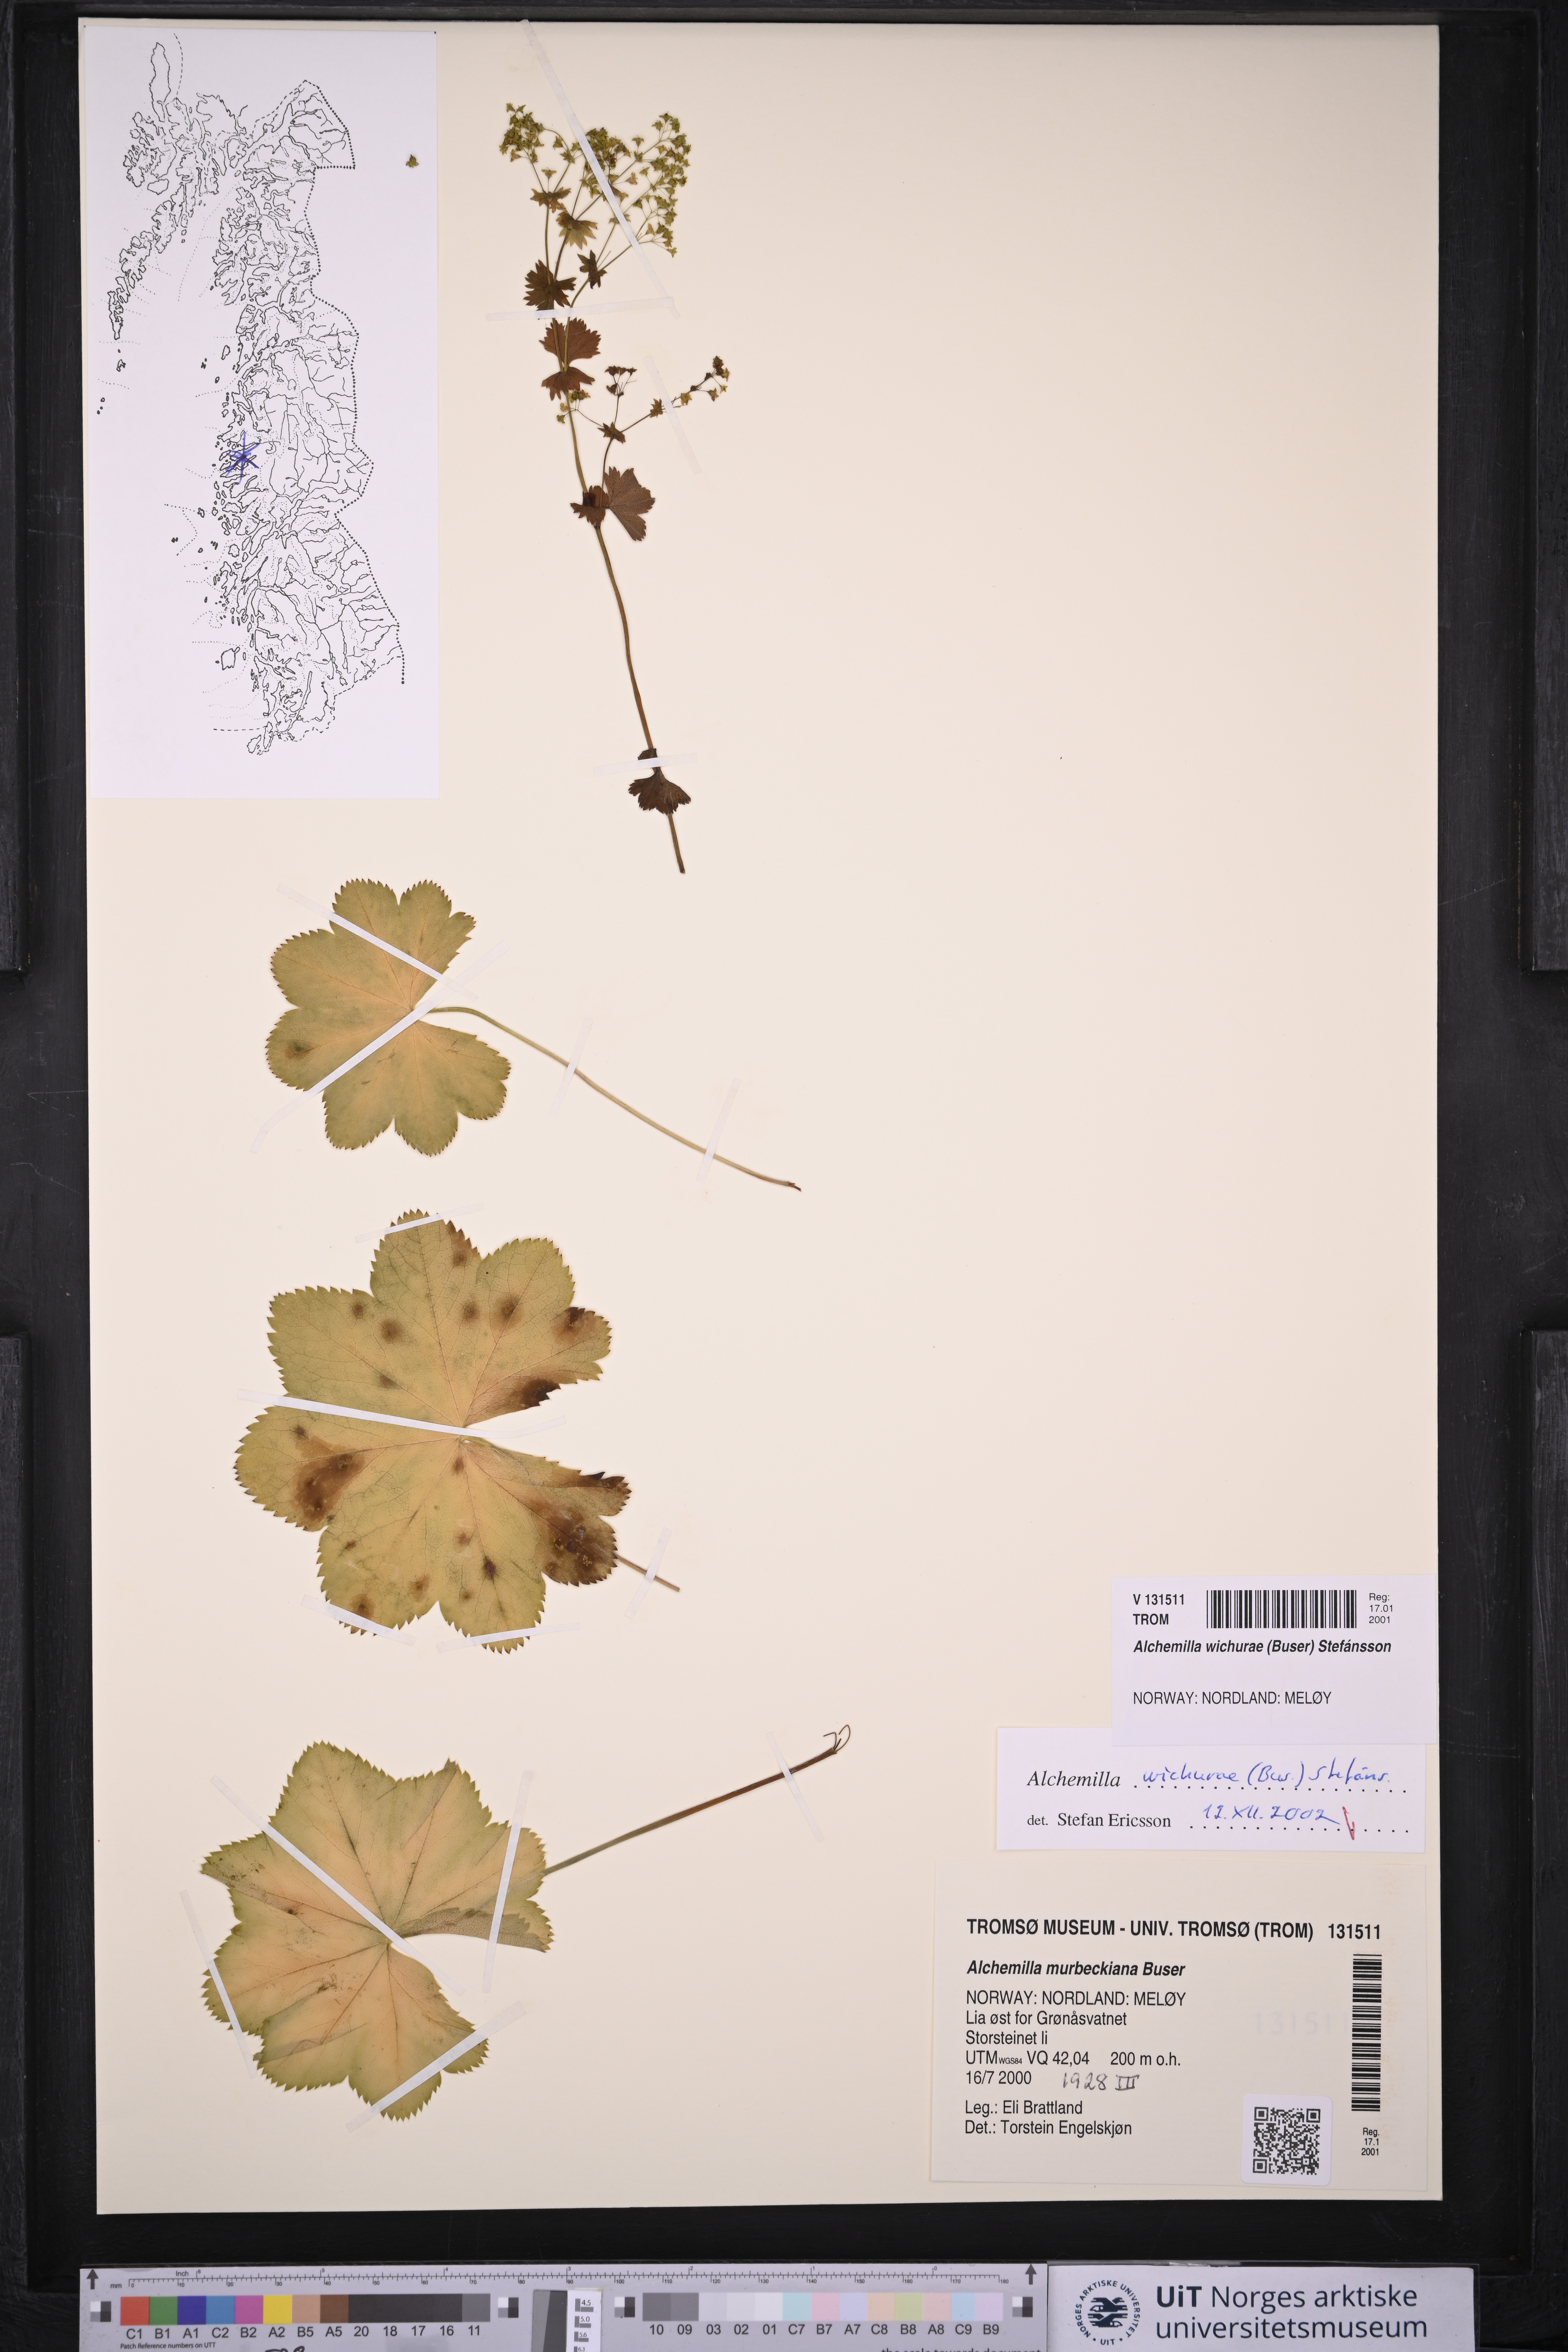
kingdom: Plantae
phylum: Tracheophyta
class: Magnoliopsida
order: Rosales
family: Rosaceae
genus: Alchemilla
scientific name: Alchemilla wichurae
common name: Rock lady's mantle
